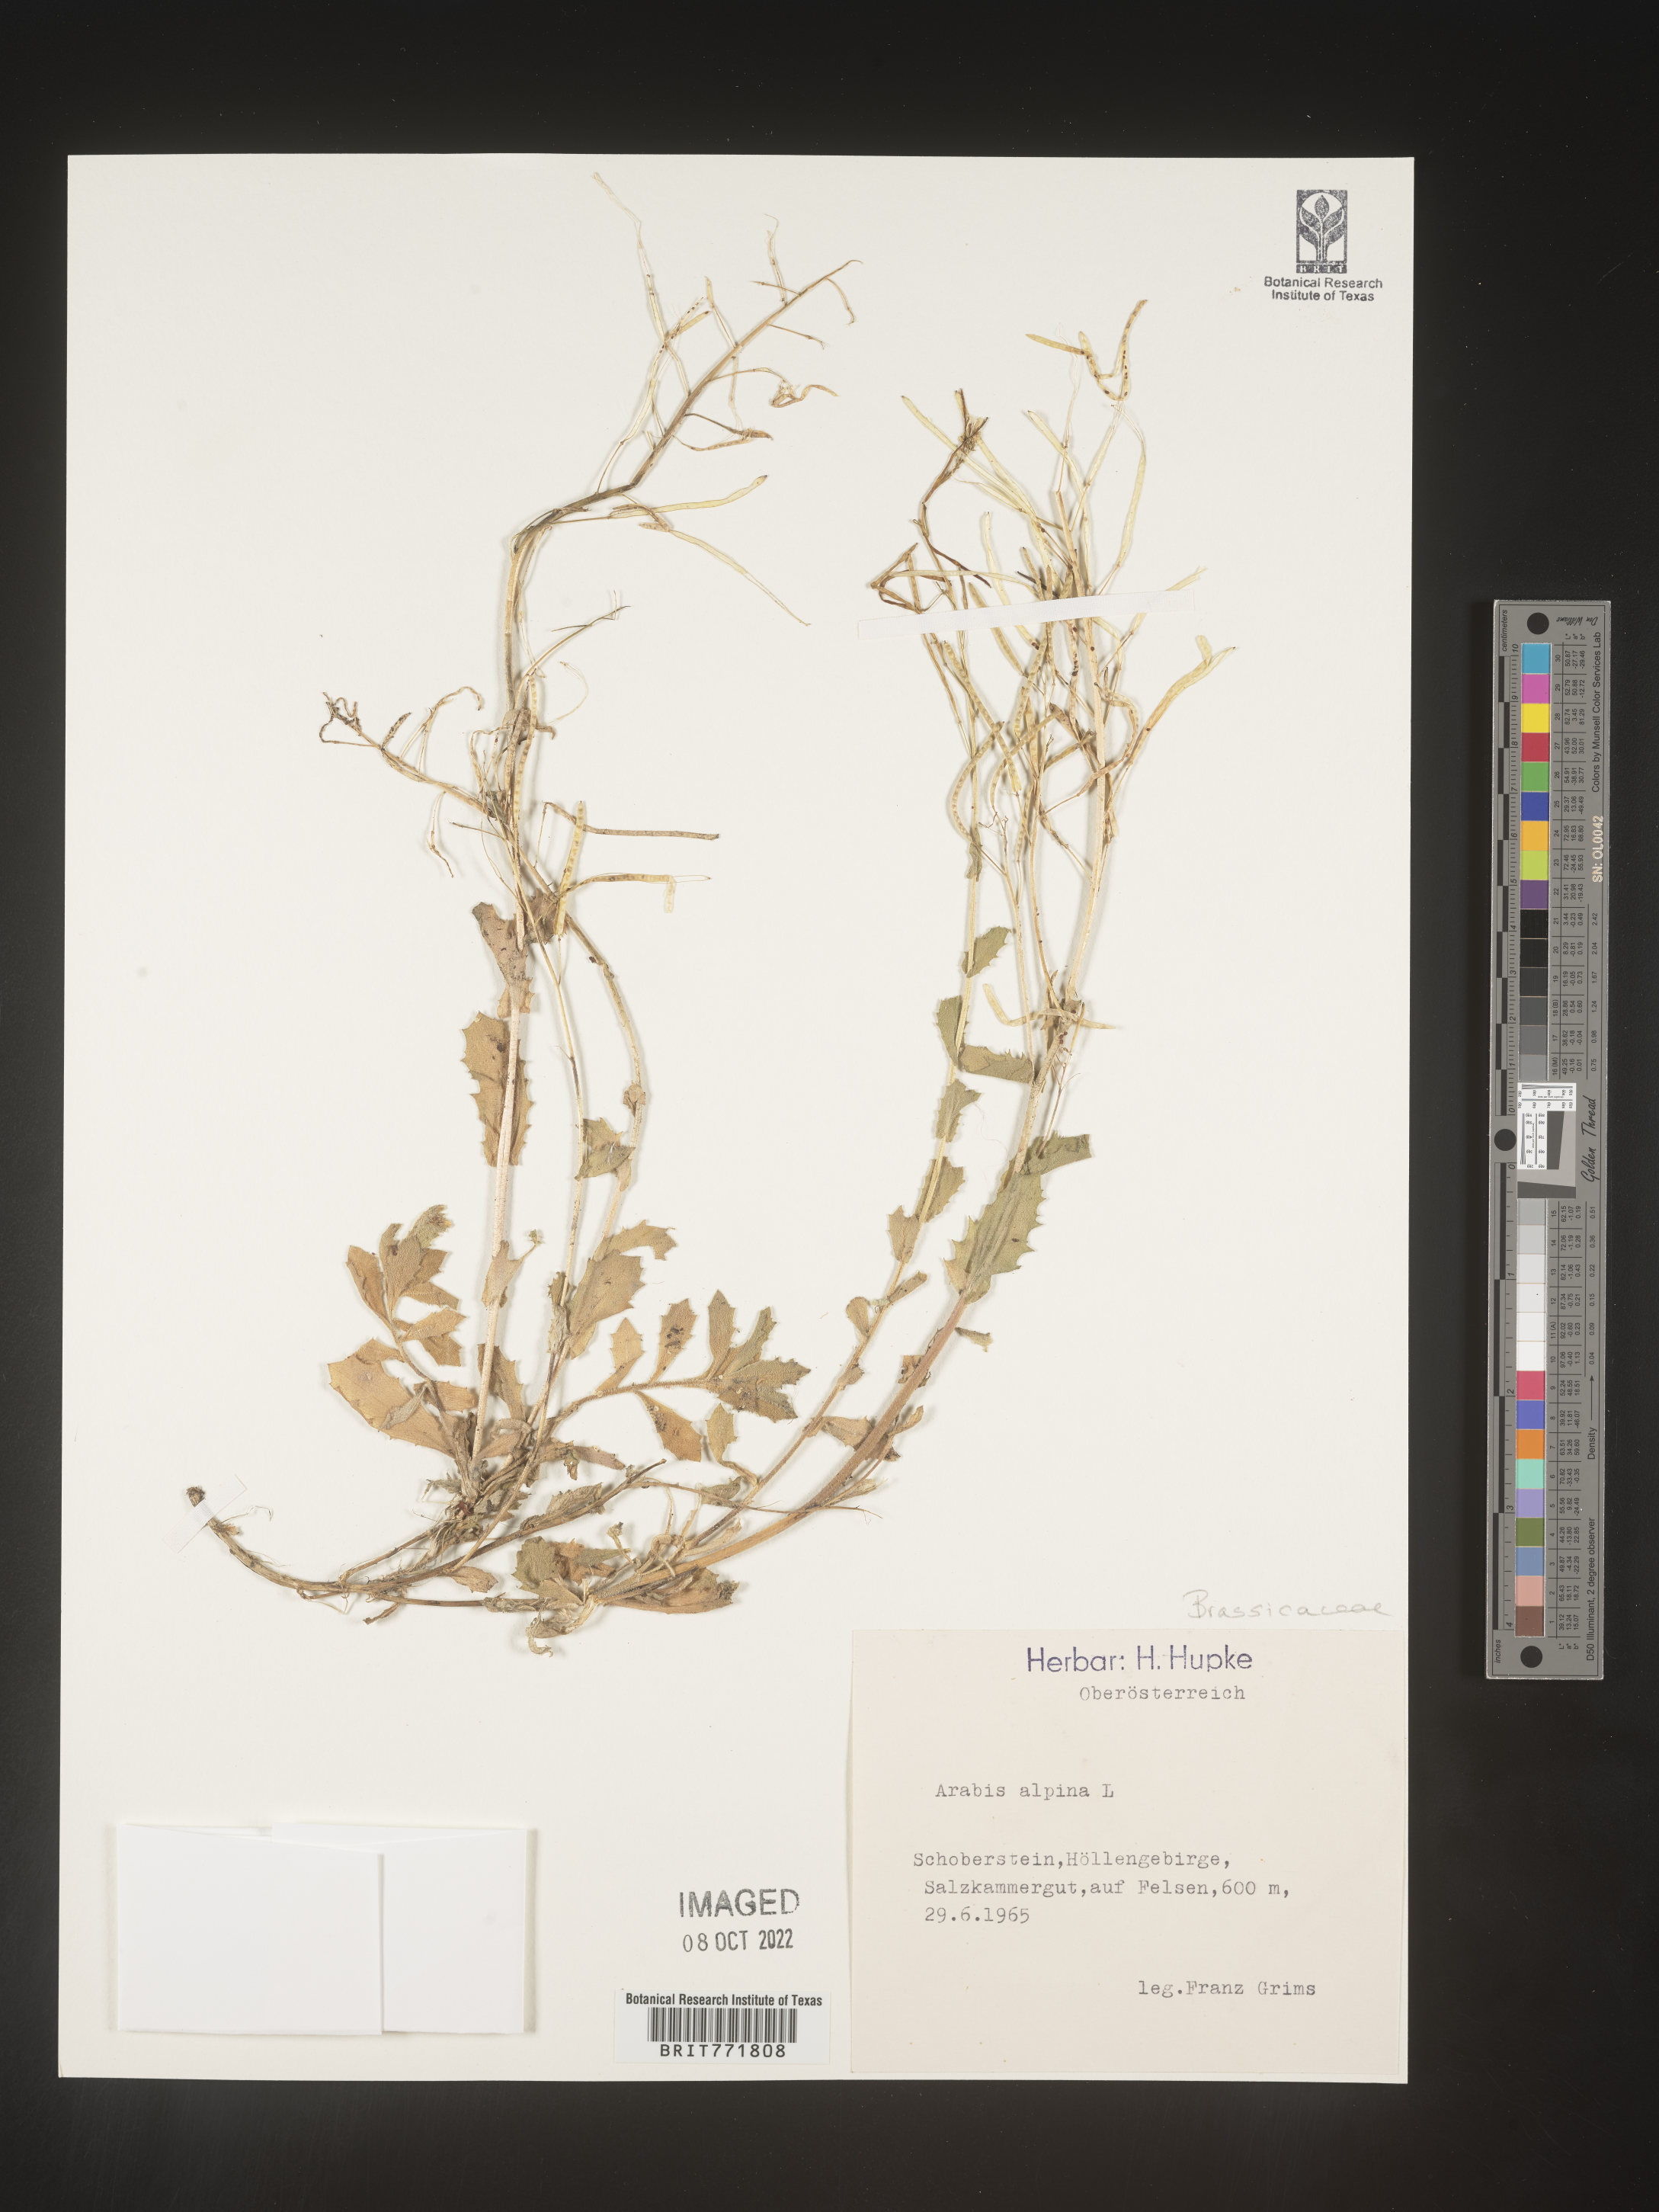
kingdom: Plantae
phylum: Tracheophyta
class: Magnoliopsida
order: Brassicales
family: Brassicaceae
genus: Arabis
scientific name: Arabis
